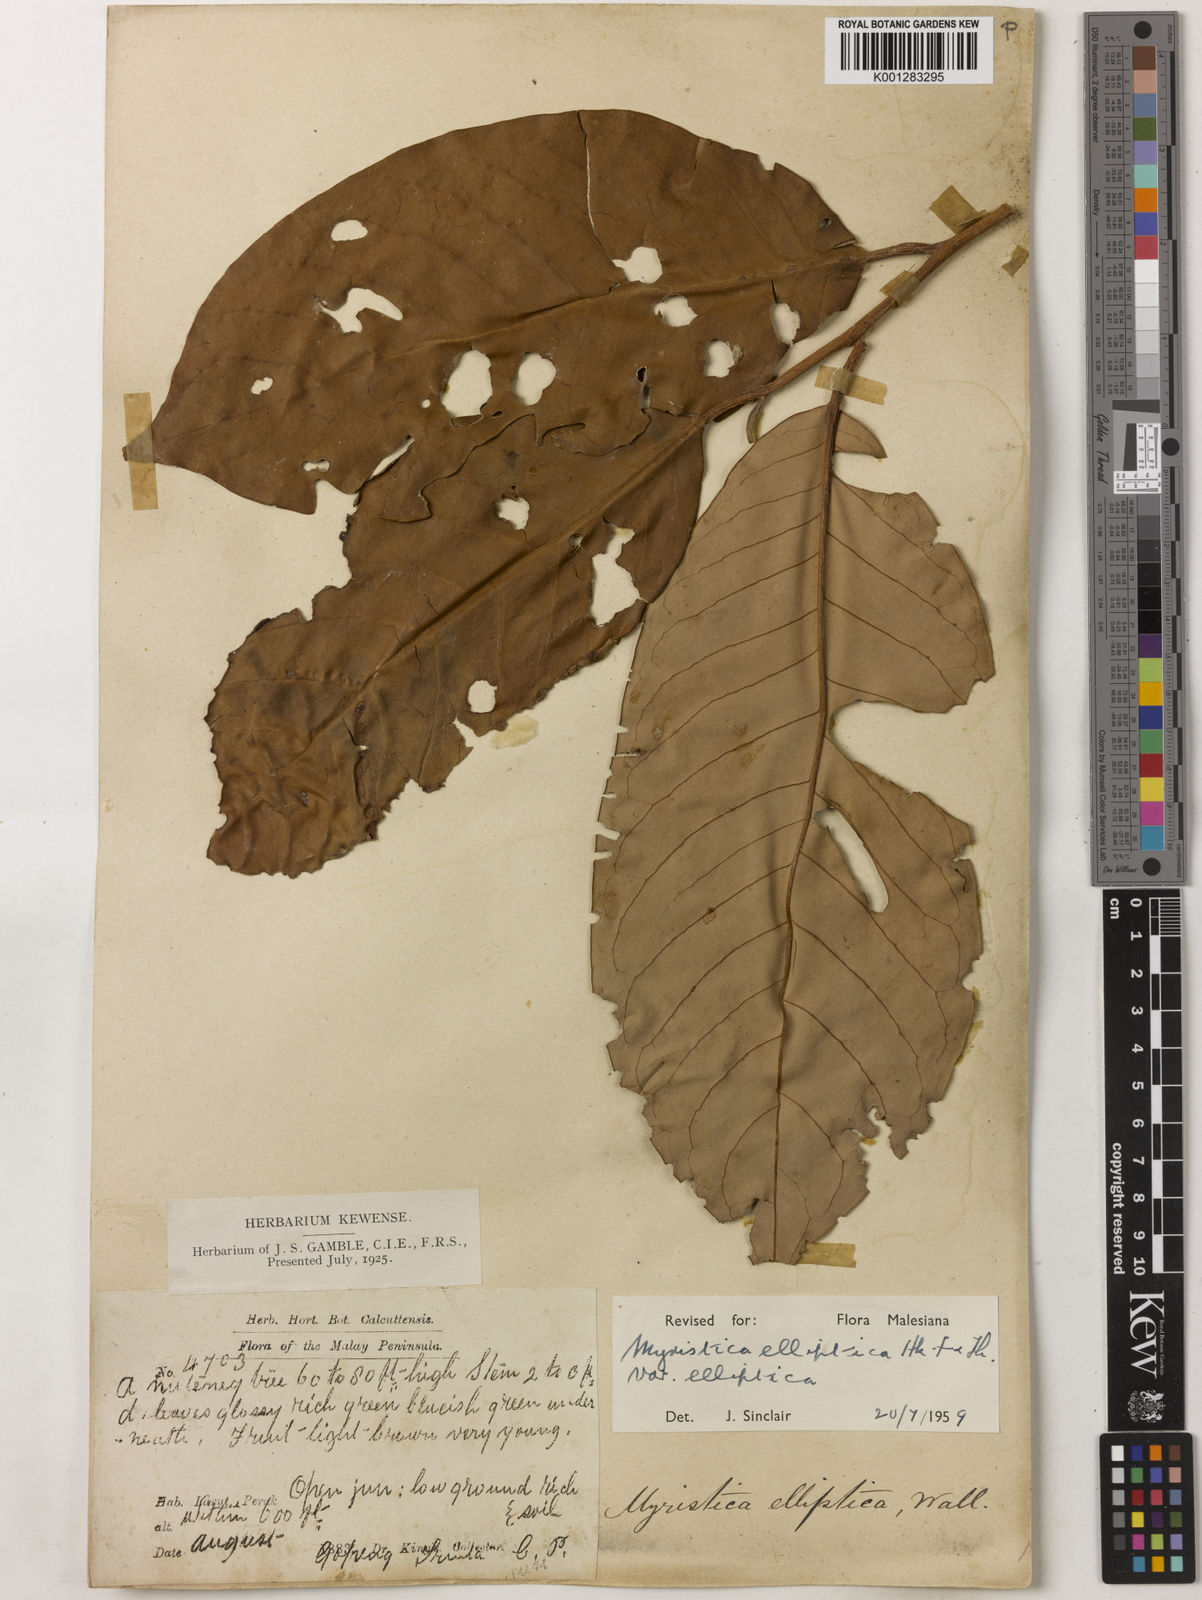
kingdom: Plantae
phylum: Tracheophyta
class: Magnoliopsida
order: Magnoliales
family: Myristicaceae
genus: Myristica
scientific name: Myristica elliptica
